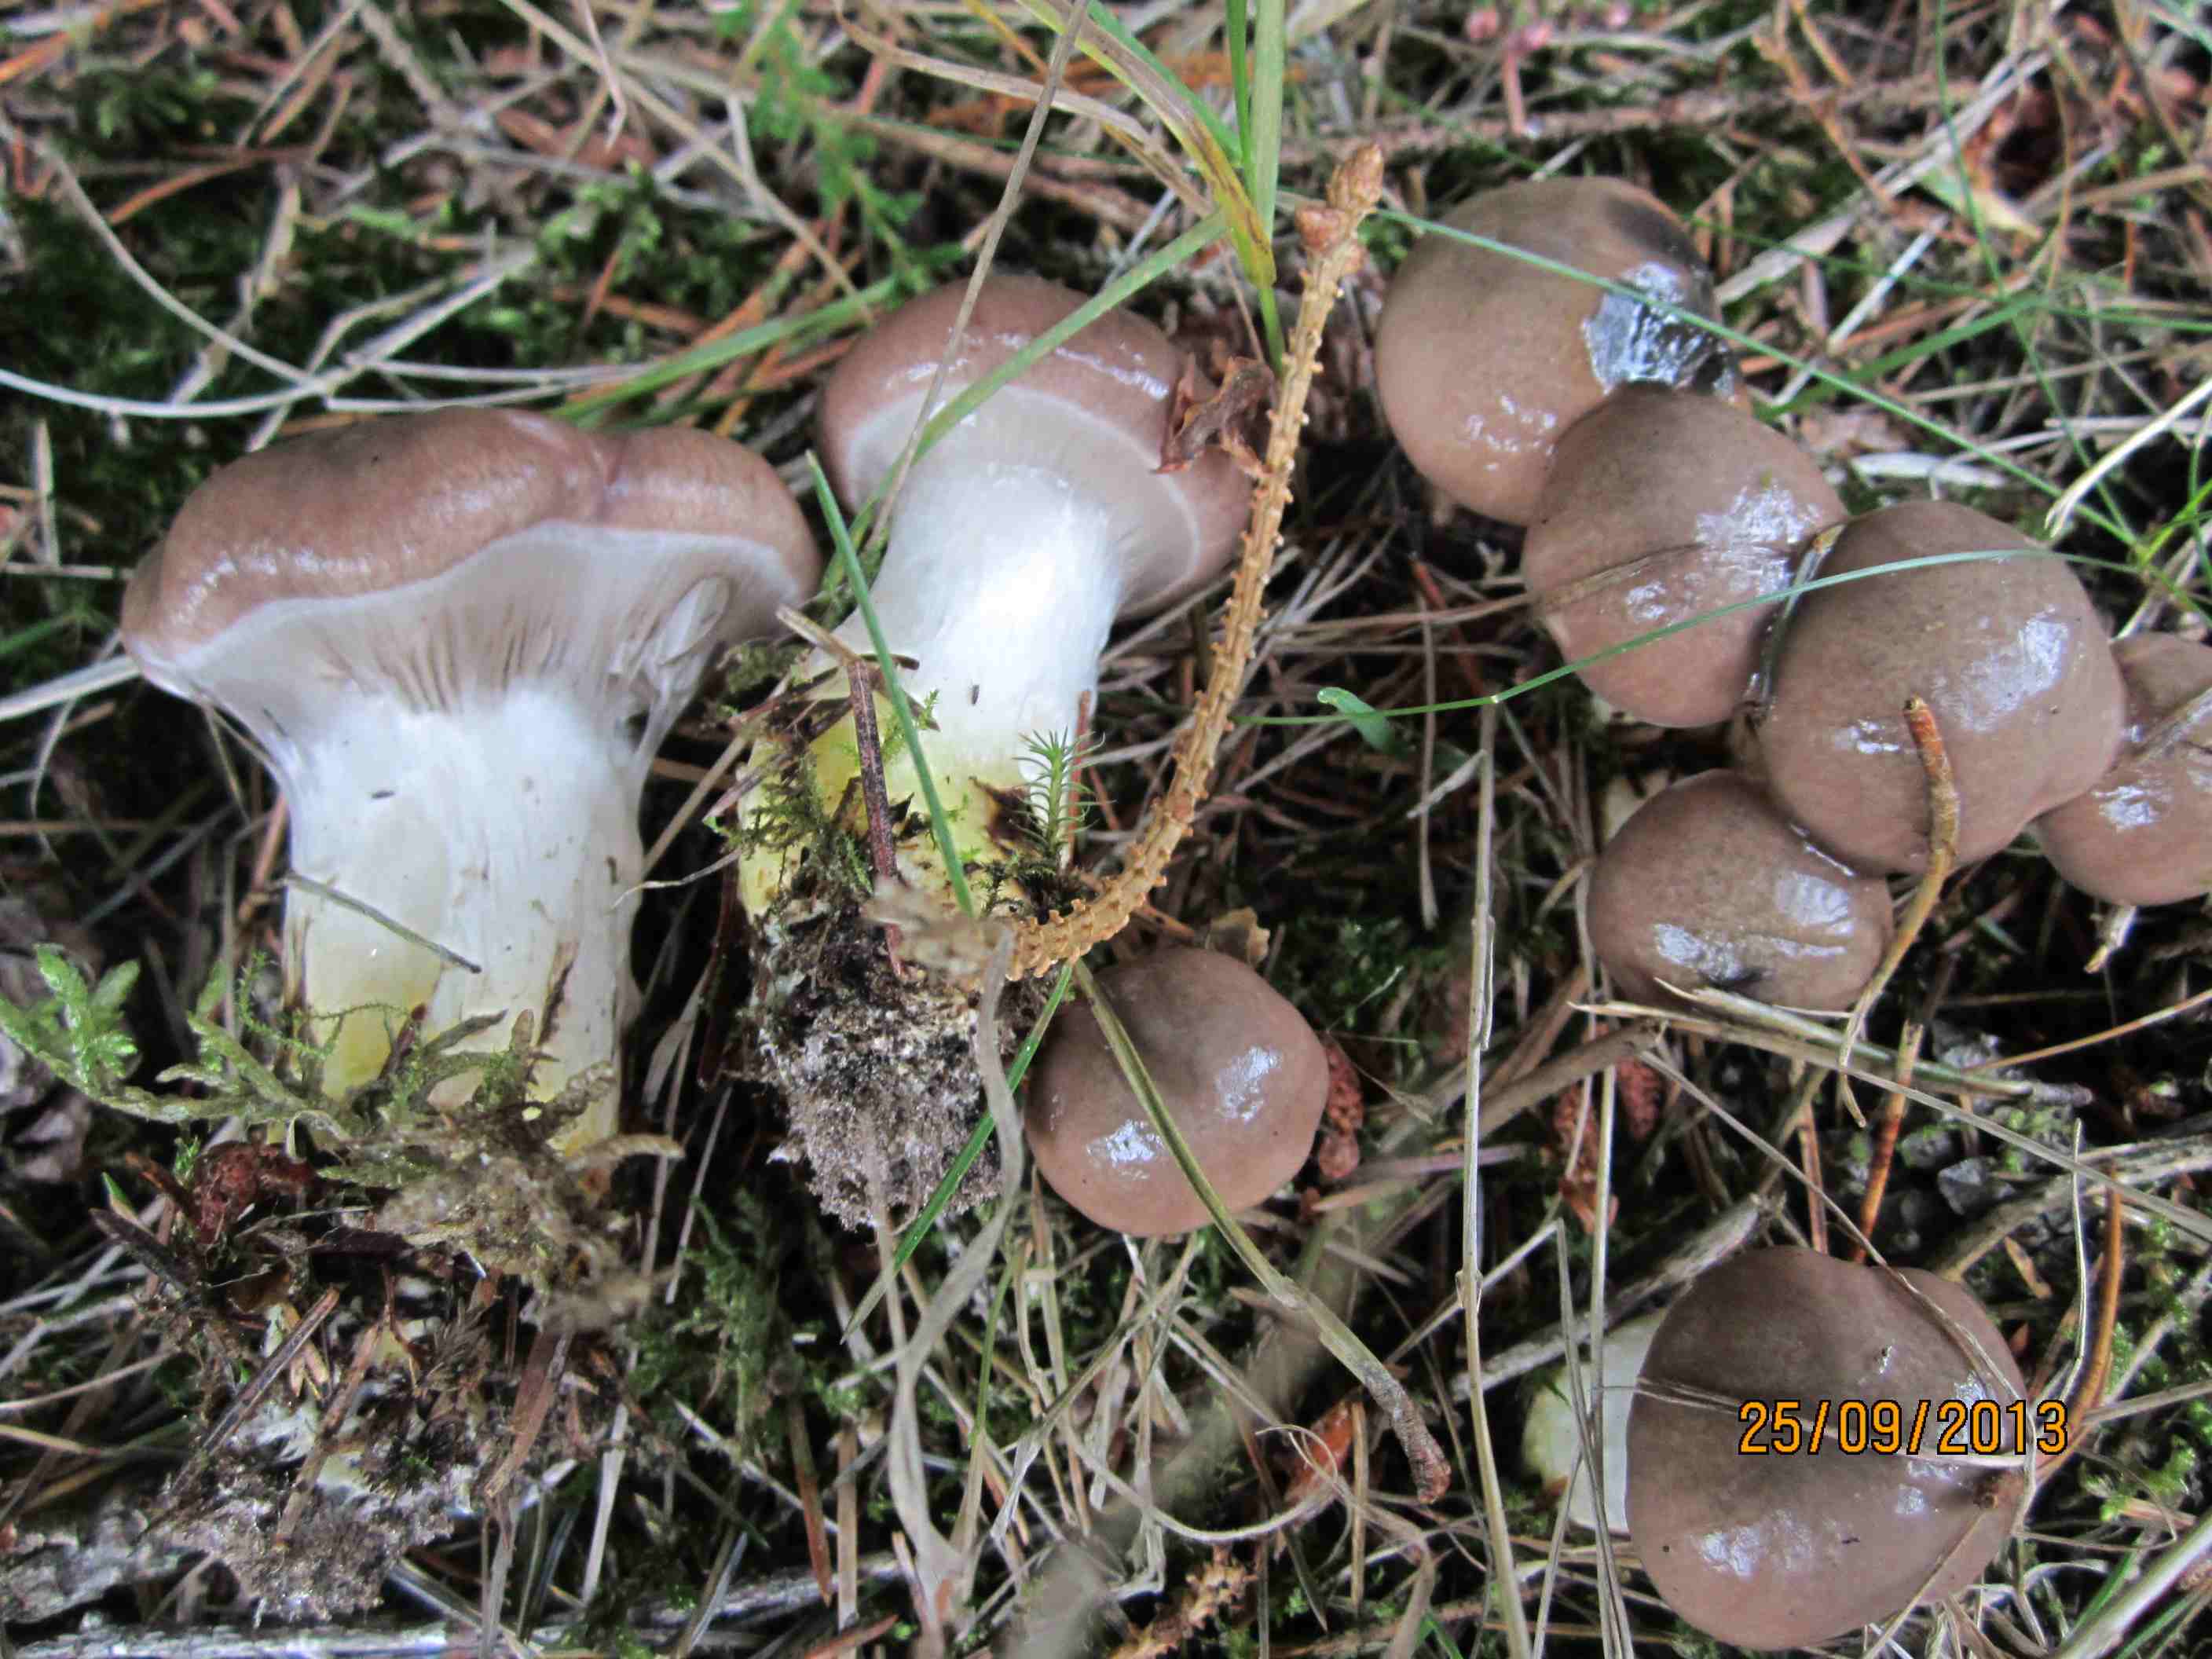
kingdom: Fungi
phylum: Basidiomycota
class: Agaricomycetes
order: Boletales
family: Gomphidiaceae
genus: Gomphidius
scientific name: Gomphidius glutinosus
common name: grå slimslør
